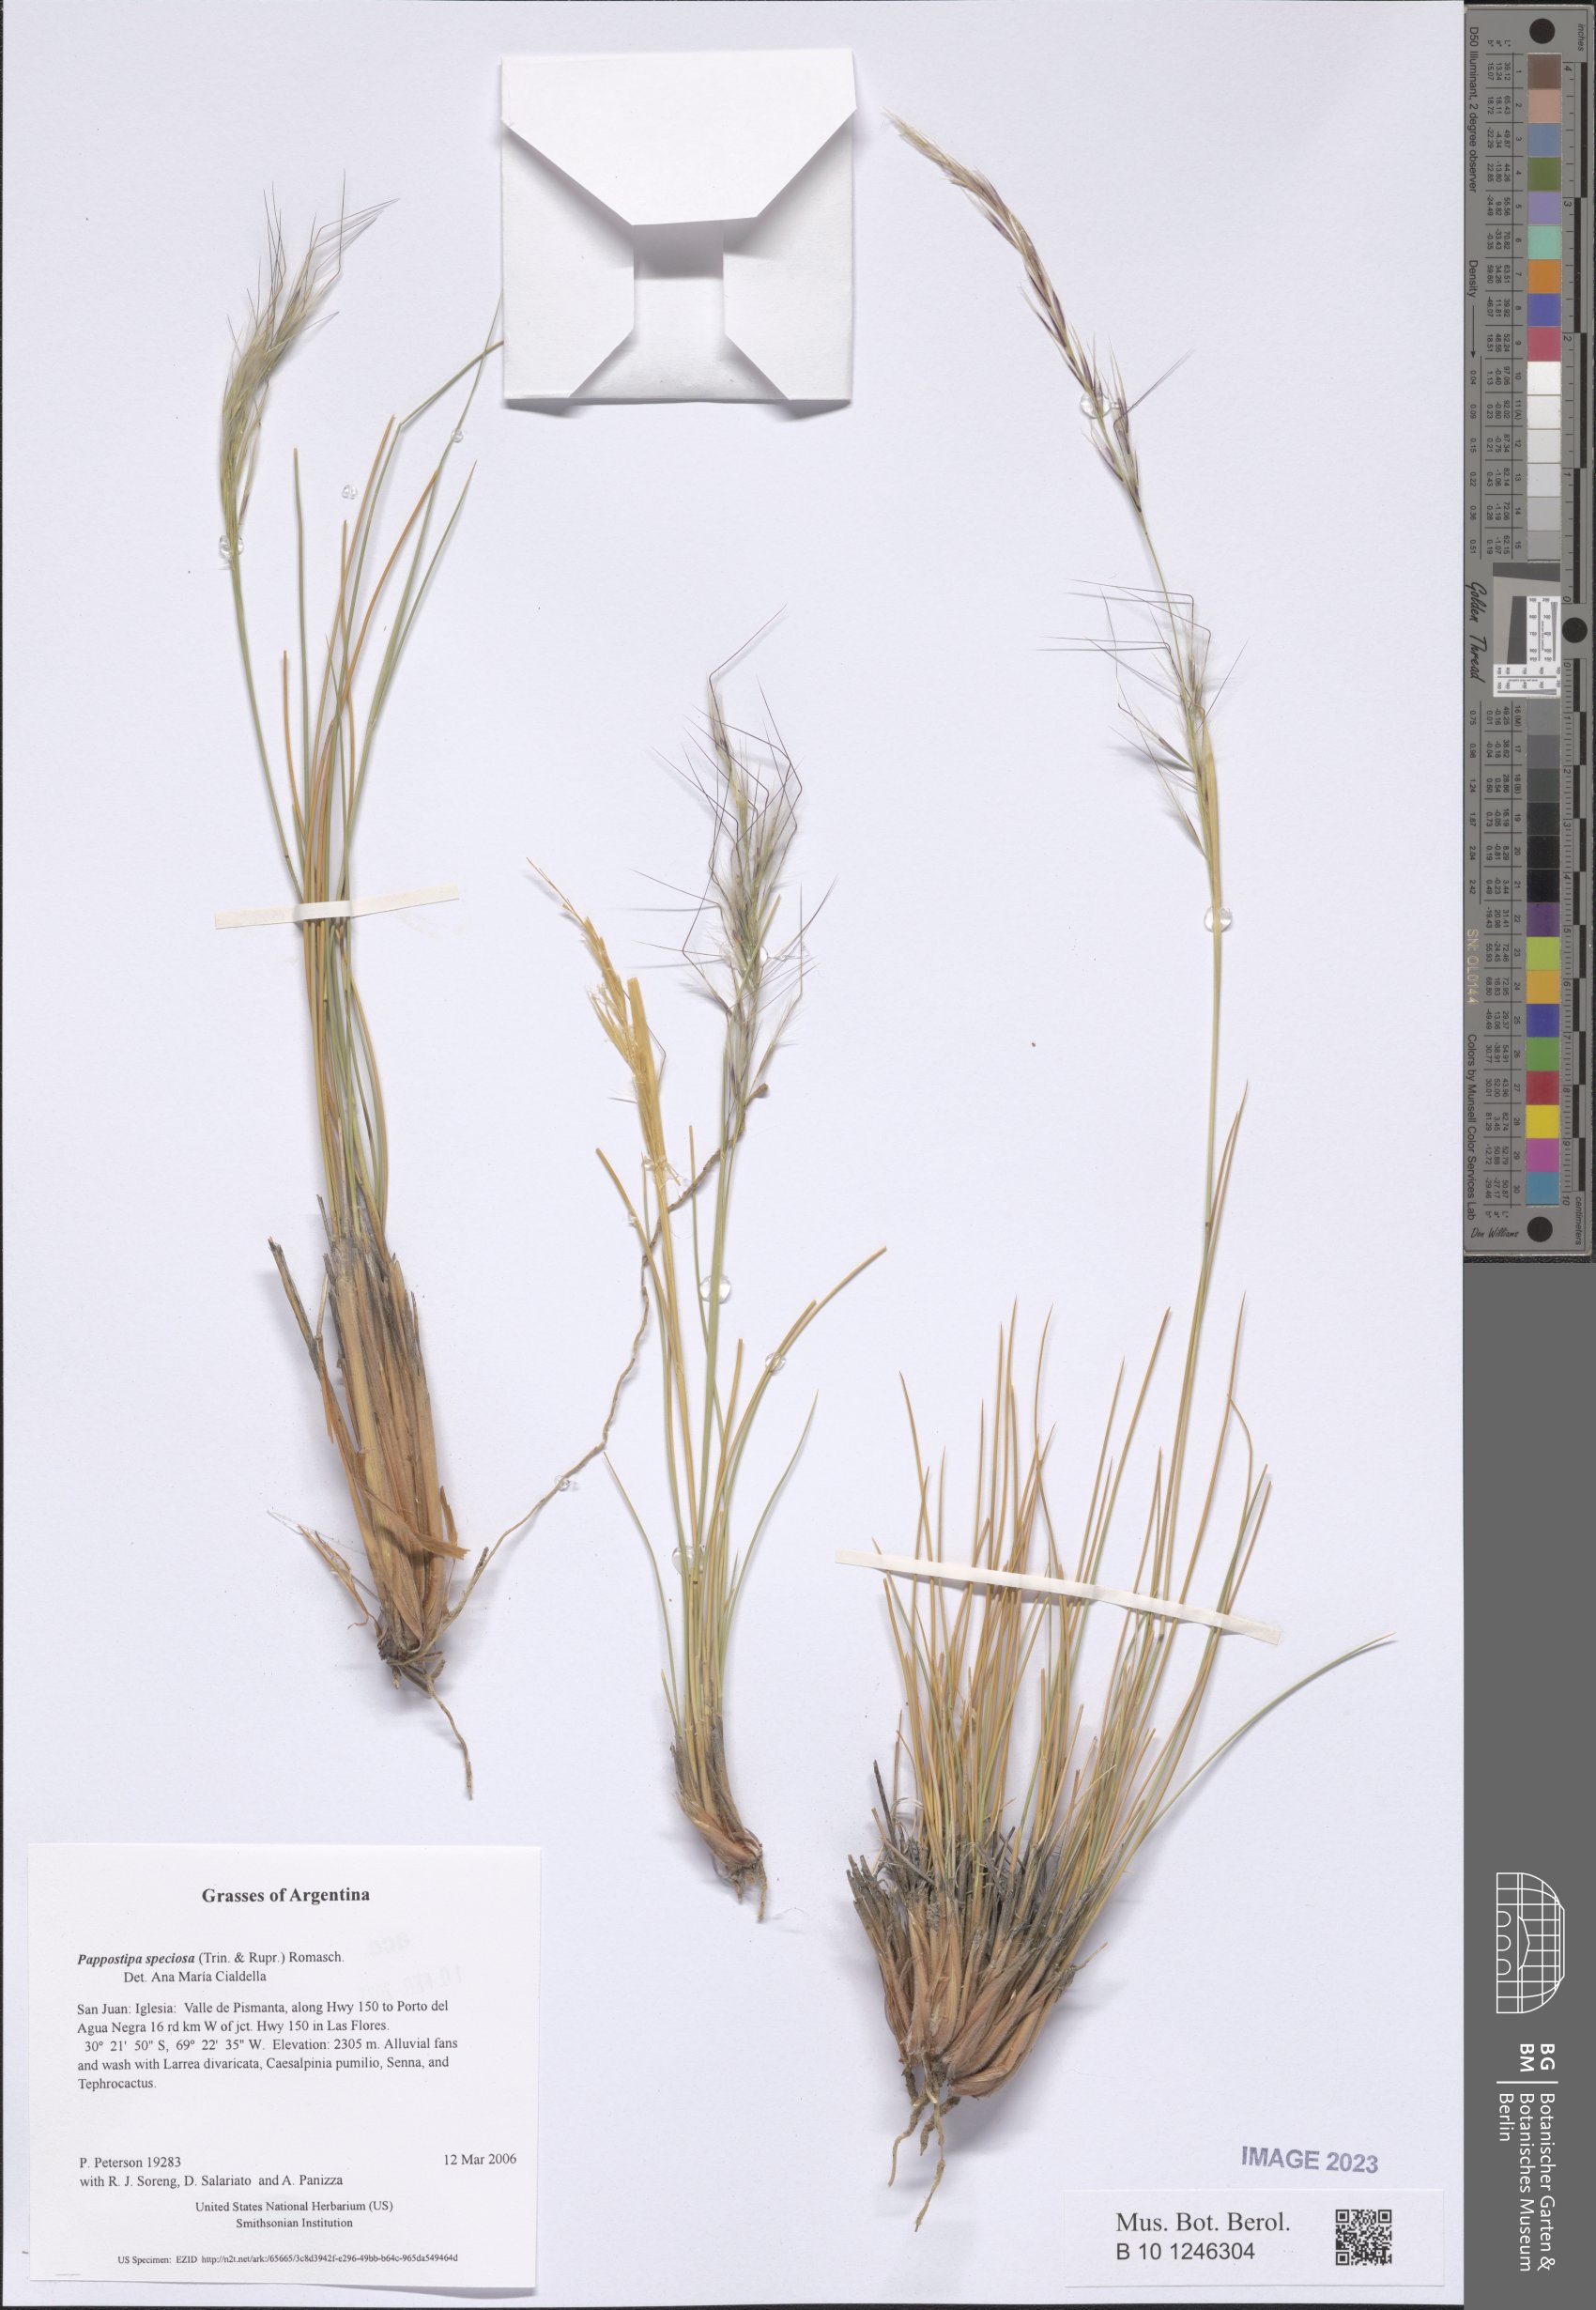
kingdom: Plantae
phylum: Tracheophyta
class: Liliopsida
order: Poales
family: Poaceae
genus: Pappostipa
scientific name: Pappostipa chrysophylla
